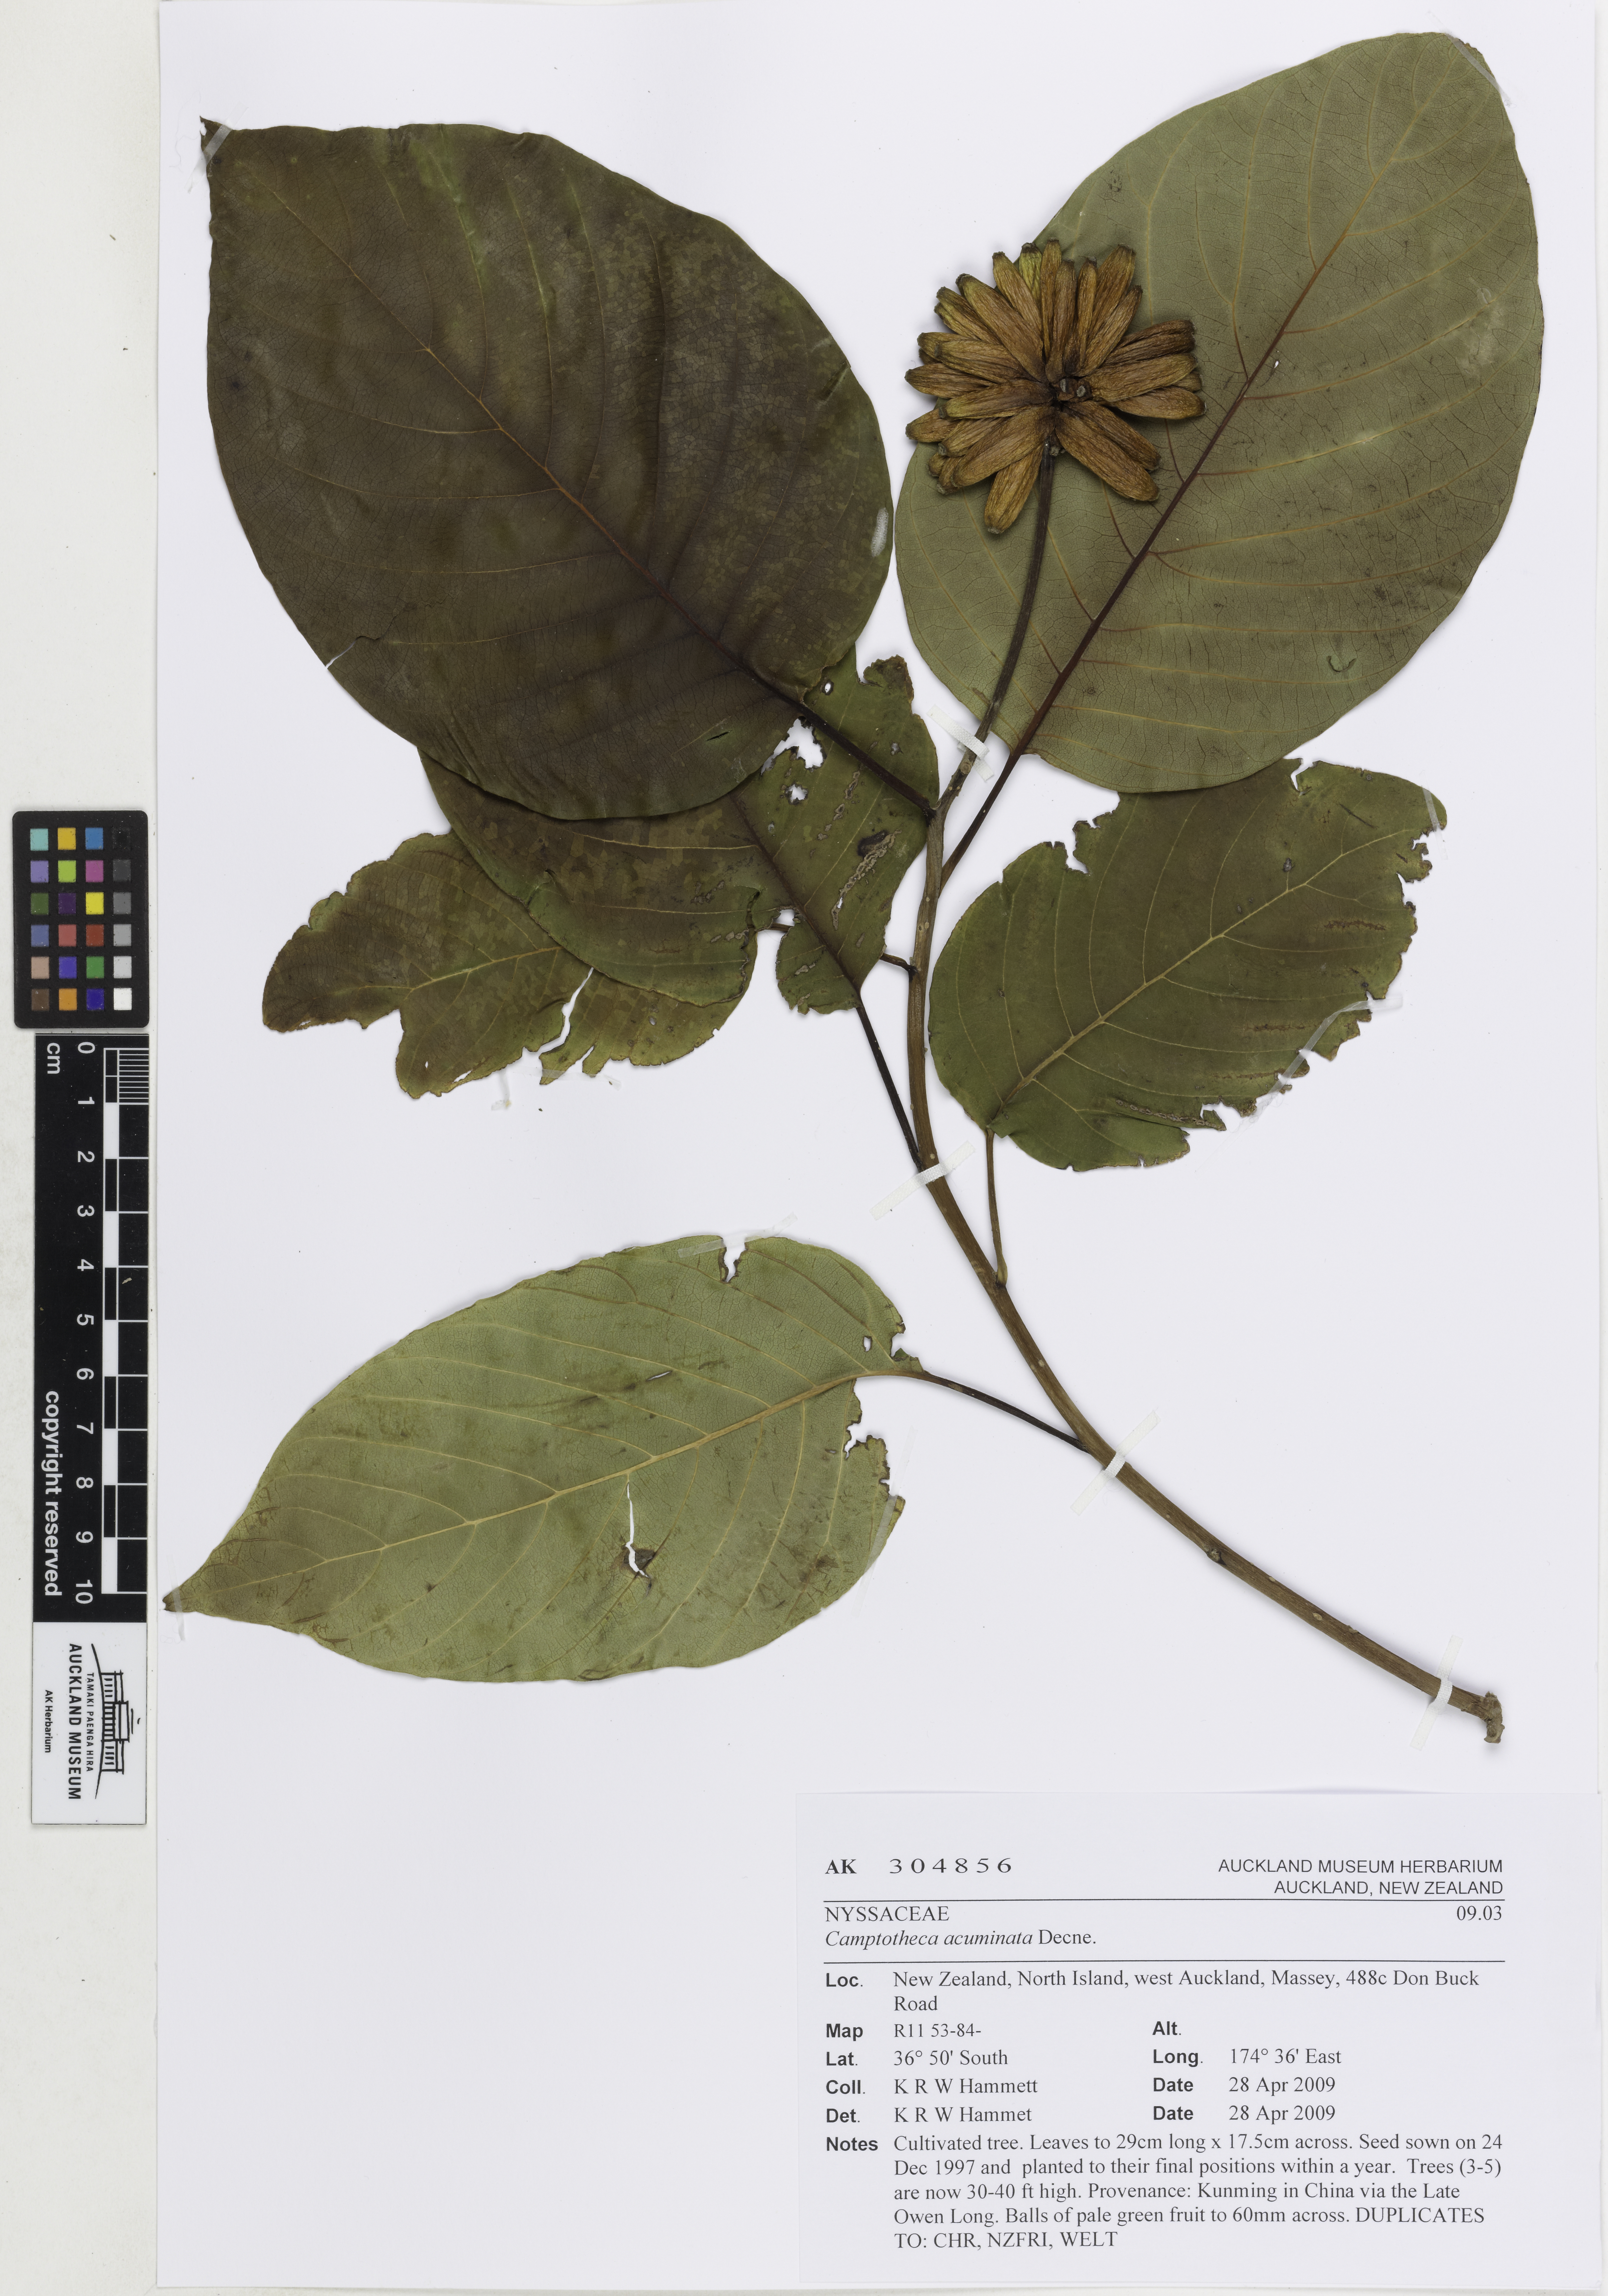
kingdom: Plantae
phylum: Tracheophyta
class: Magnoliopsida
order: Cornales
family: Nyssaceae
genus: Camptotheca
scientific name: Camptotheca acuminata
